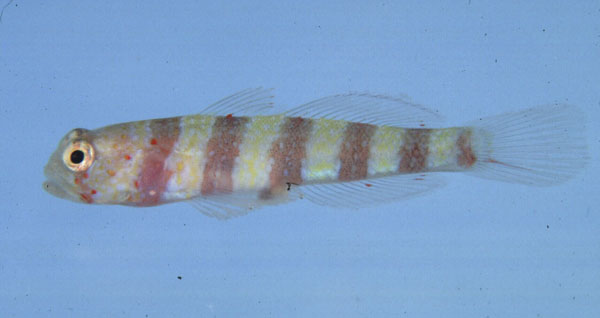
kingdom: Animalia
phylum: Chordata
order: Perciformes
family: Gobiidae
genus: Amblyeleotris
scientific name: Amblyeleotris wheeleri
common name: Gorgeous prawn-goby
